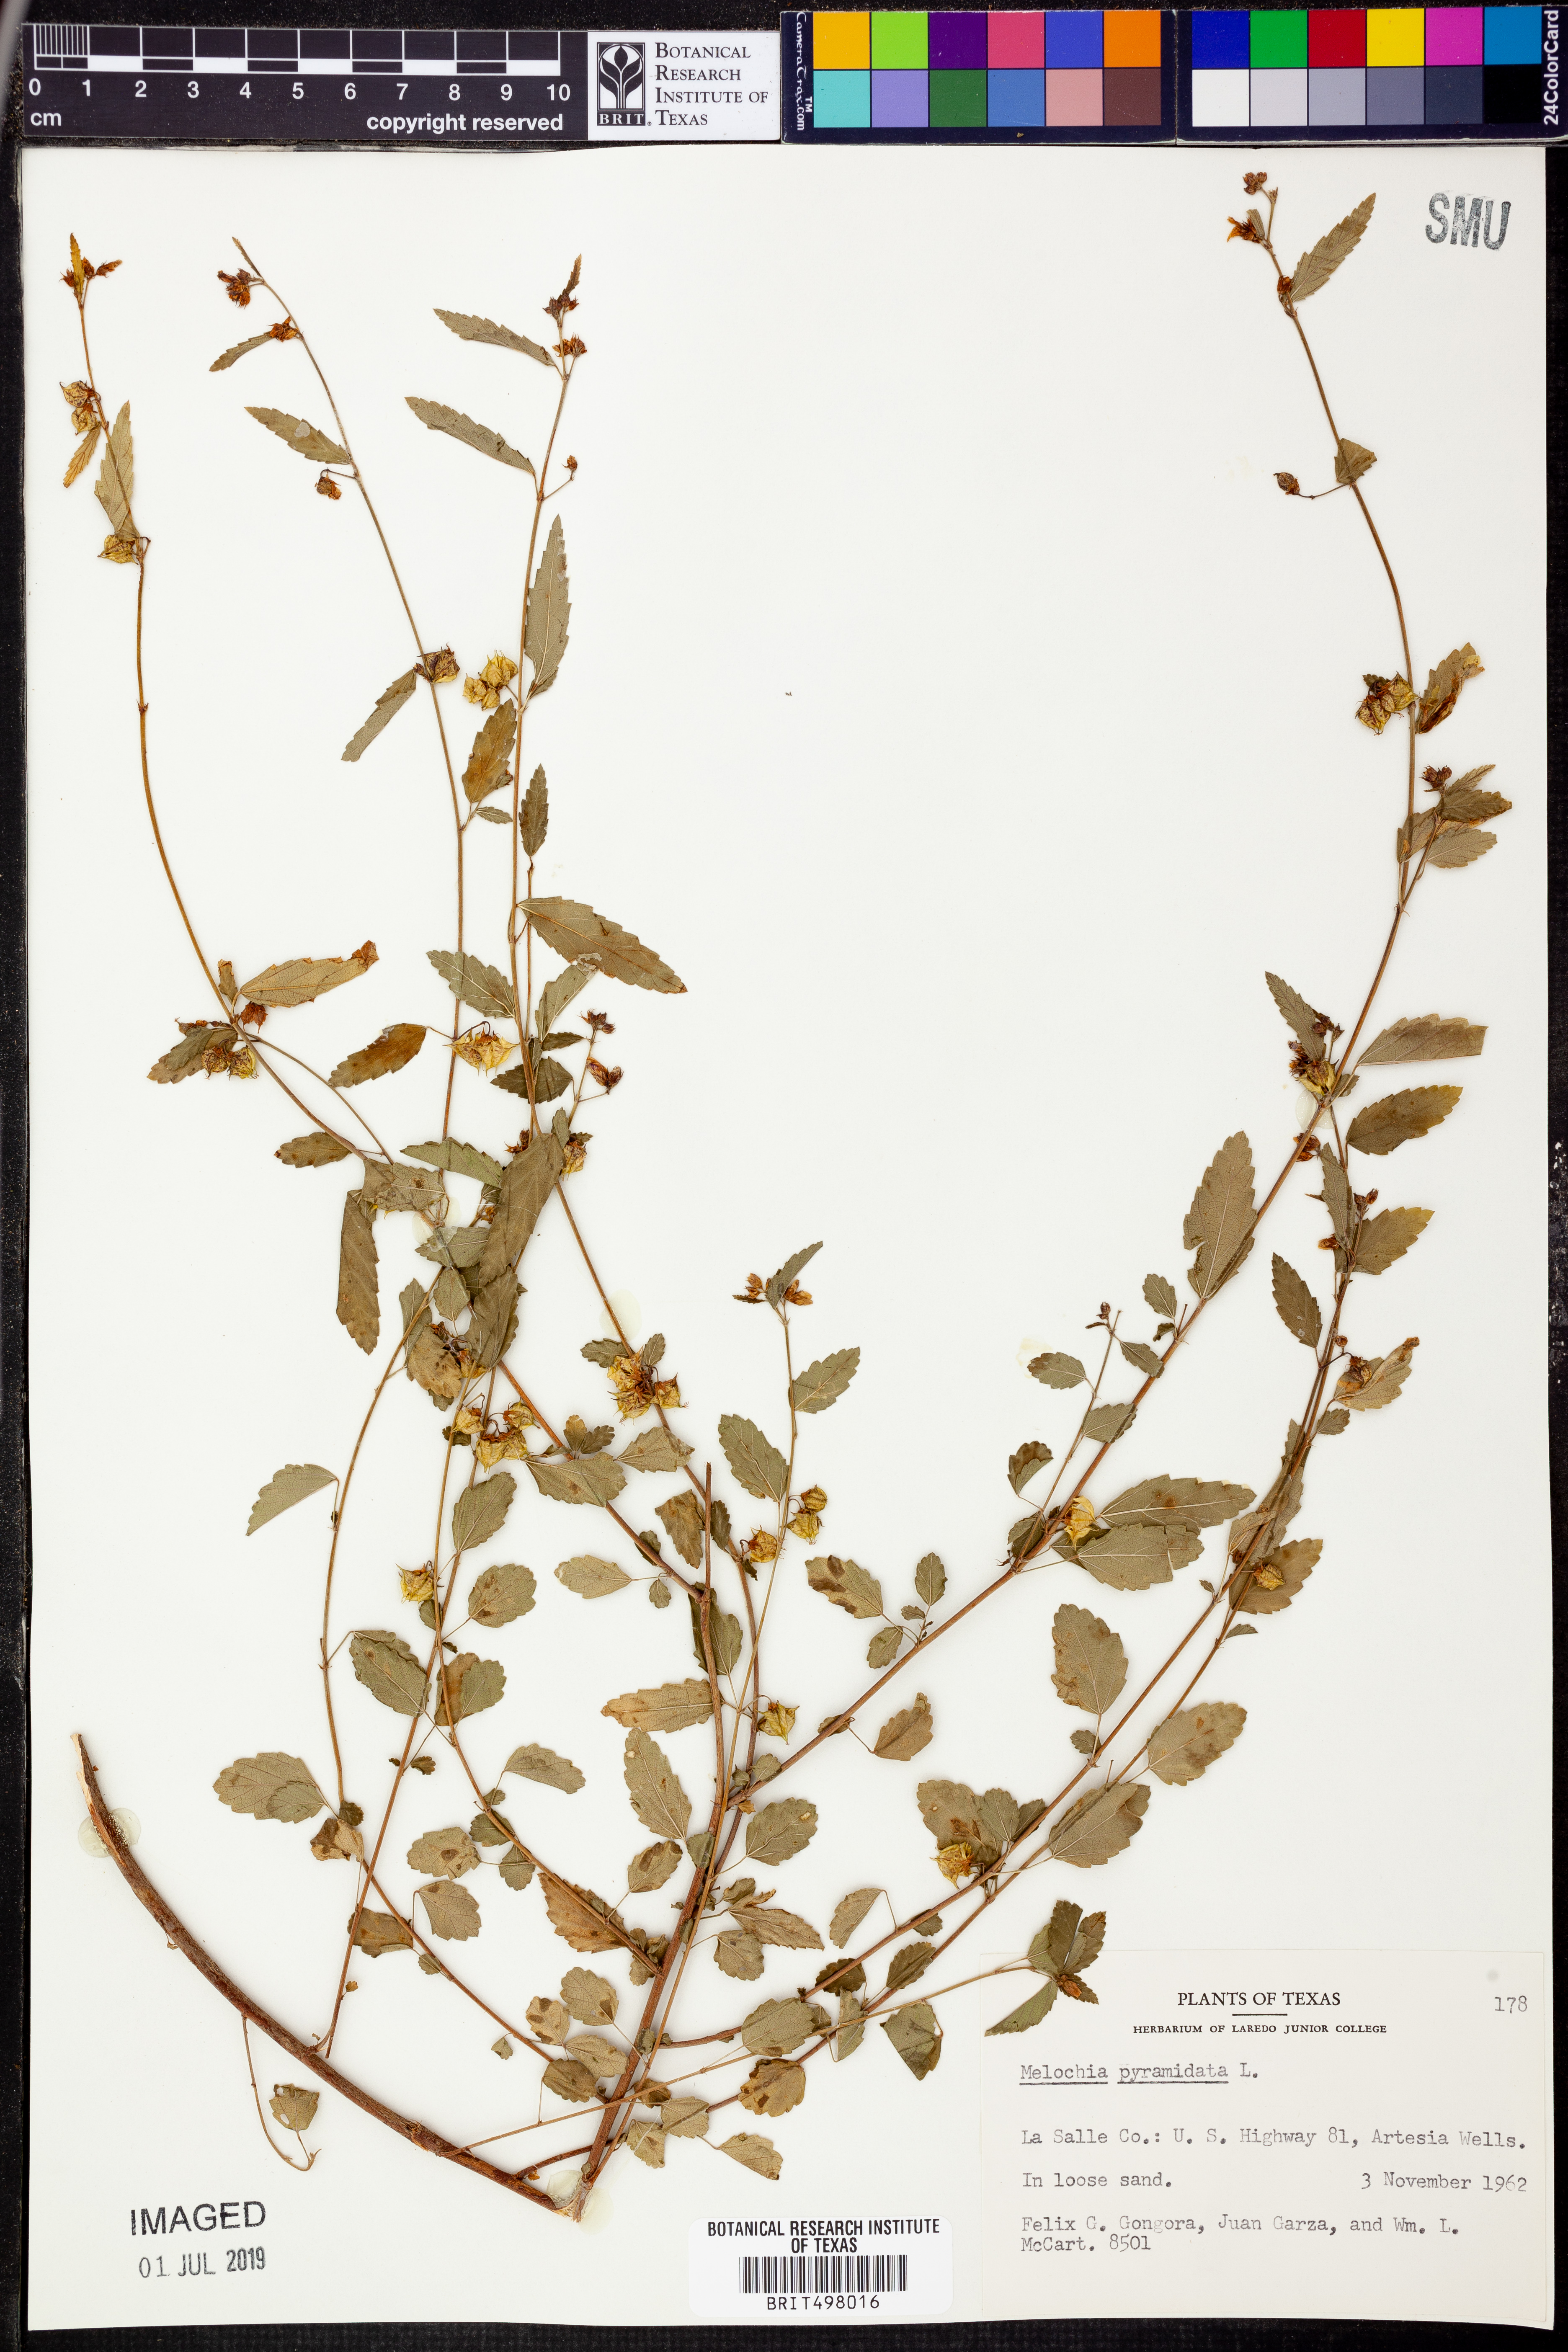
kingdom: Plantae
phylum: Tracheophyta
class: Magnoliopsida
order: Malvales
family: Malvaceae
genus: Melochia
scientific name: Melochia pyramidata
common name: Pyramidflower
